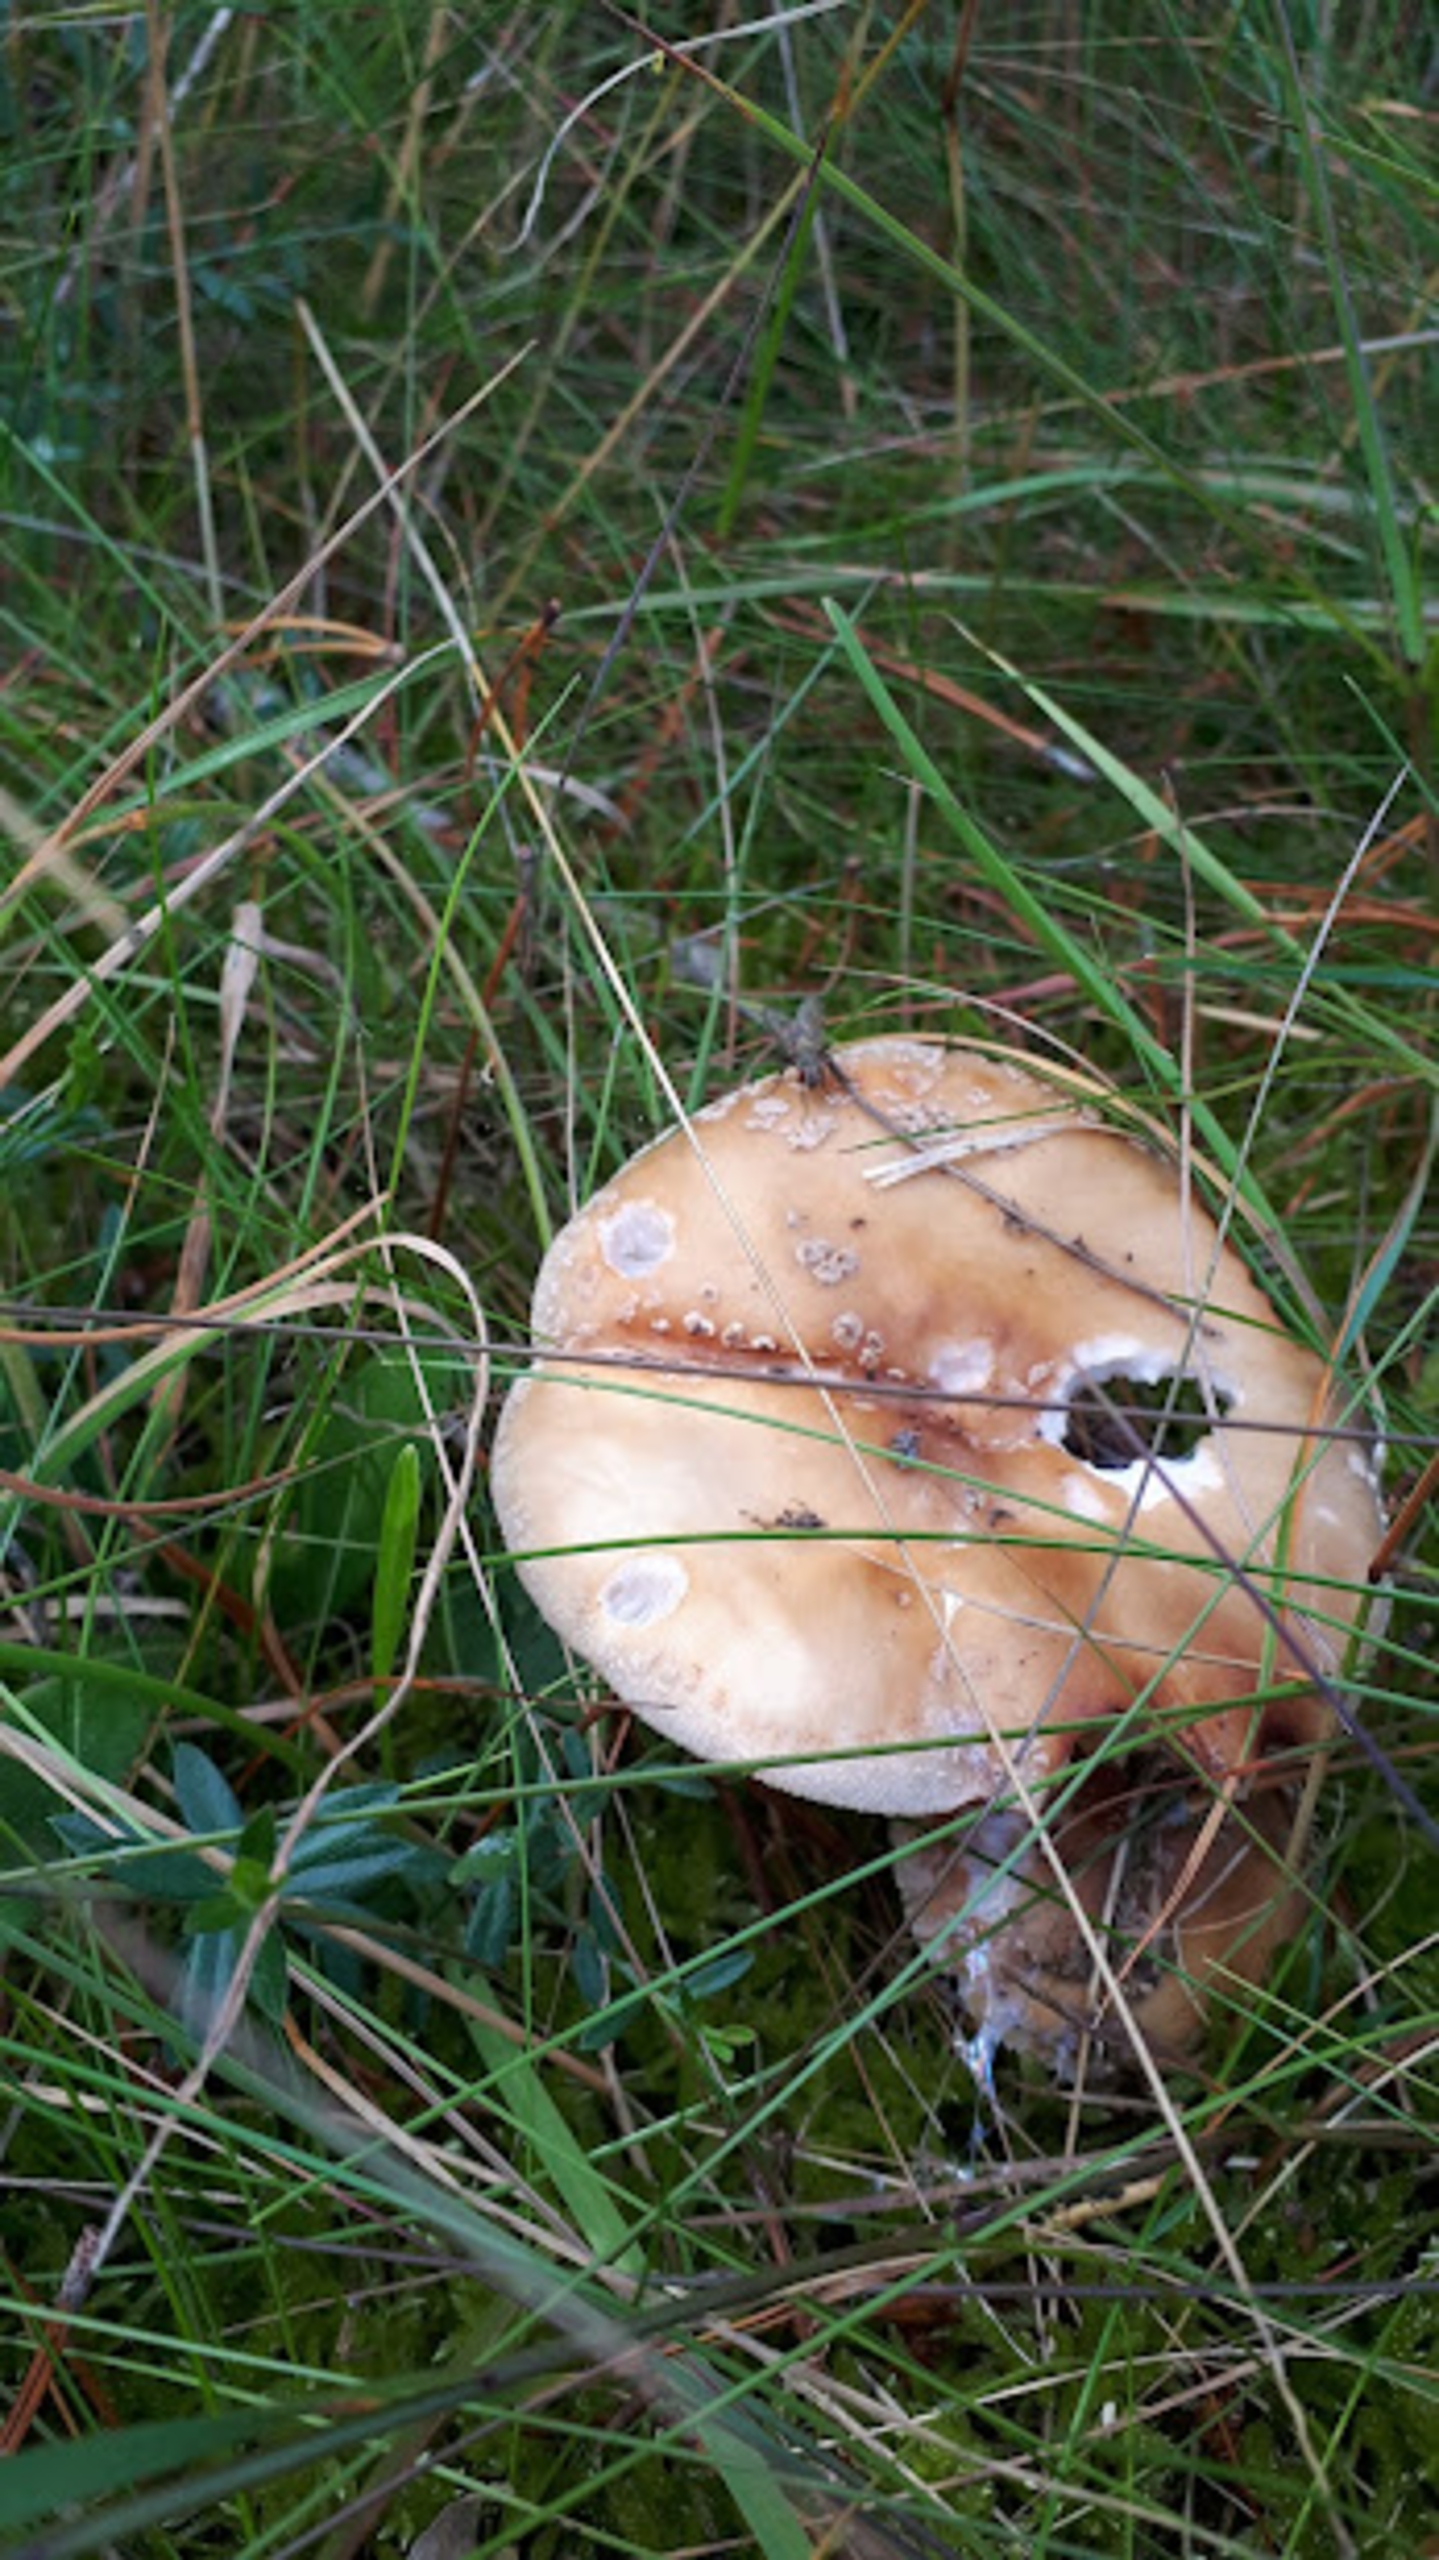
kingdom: Fungi
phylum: Basidiomycota
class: Agaricomycetes
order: Agaricales
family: Amanitaceae
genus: Amanita
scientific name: Amanita rubescens
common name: Rødmende fluesvamp
